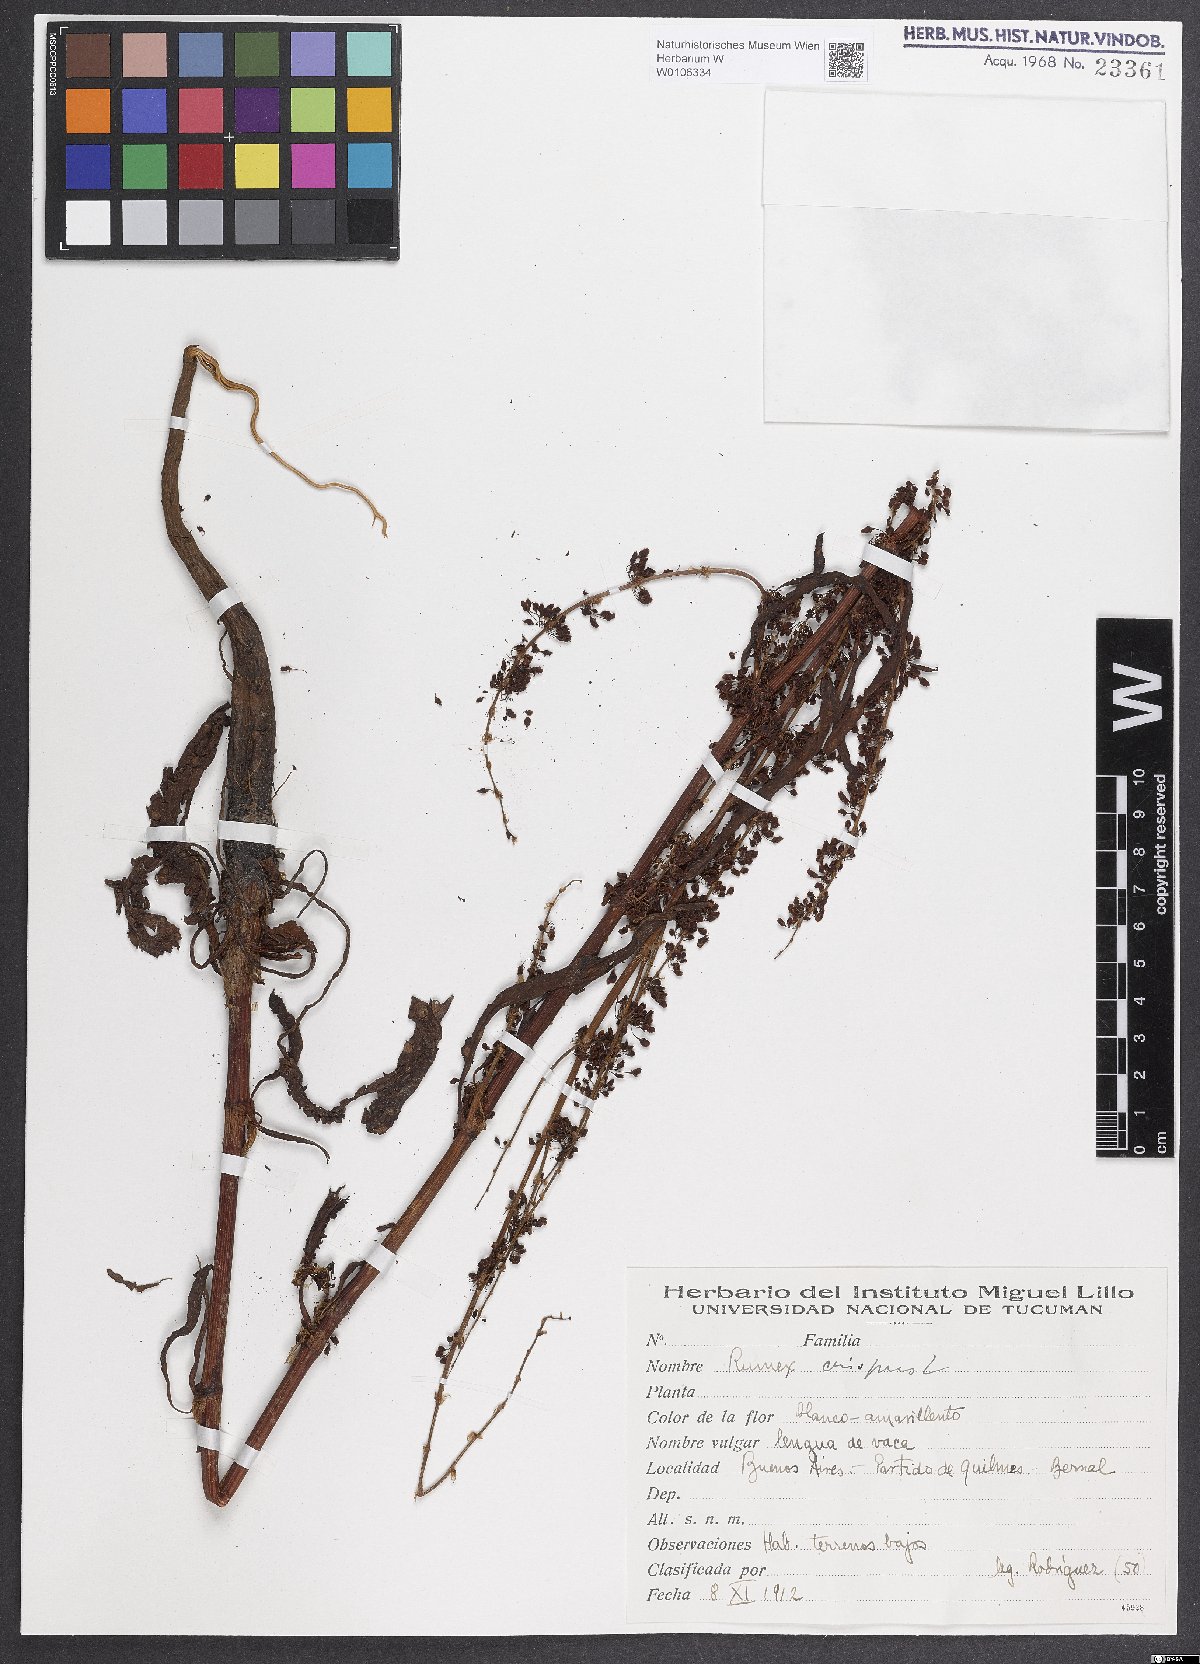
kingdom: Plantae
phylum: Tracheophyta
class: Magnoliopsida
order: Caryophyllales
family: Polygonaceae
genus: Rumex
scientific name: Rumex crispus
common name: Curled dock
